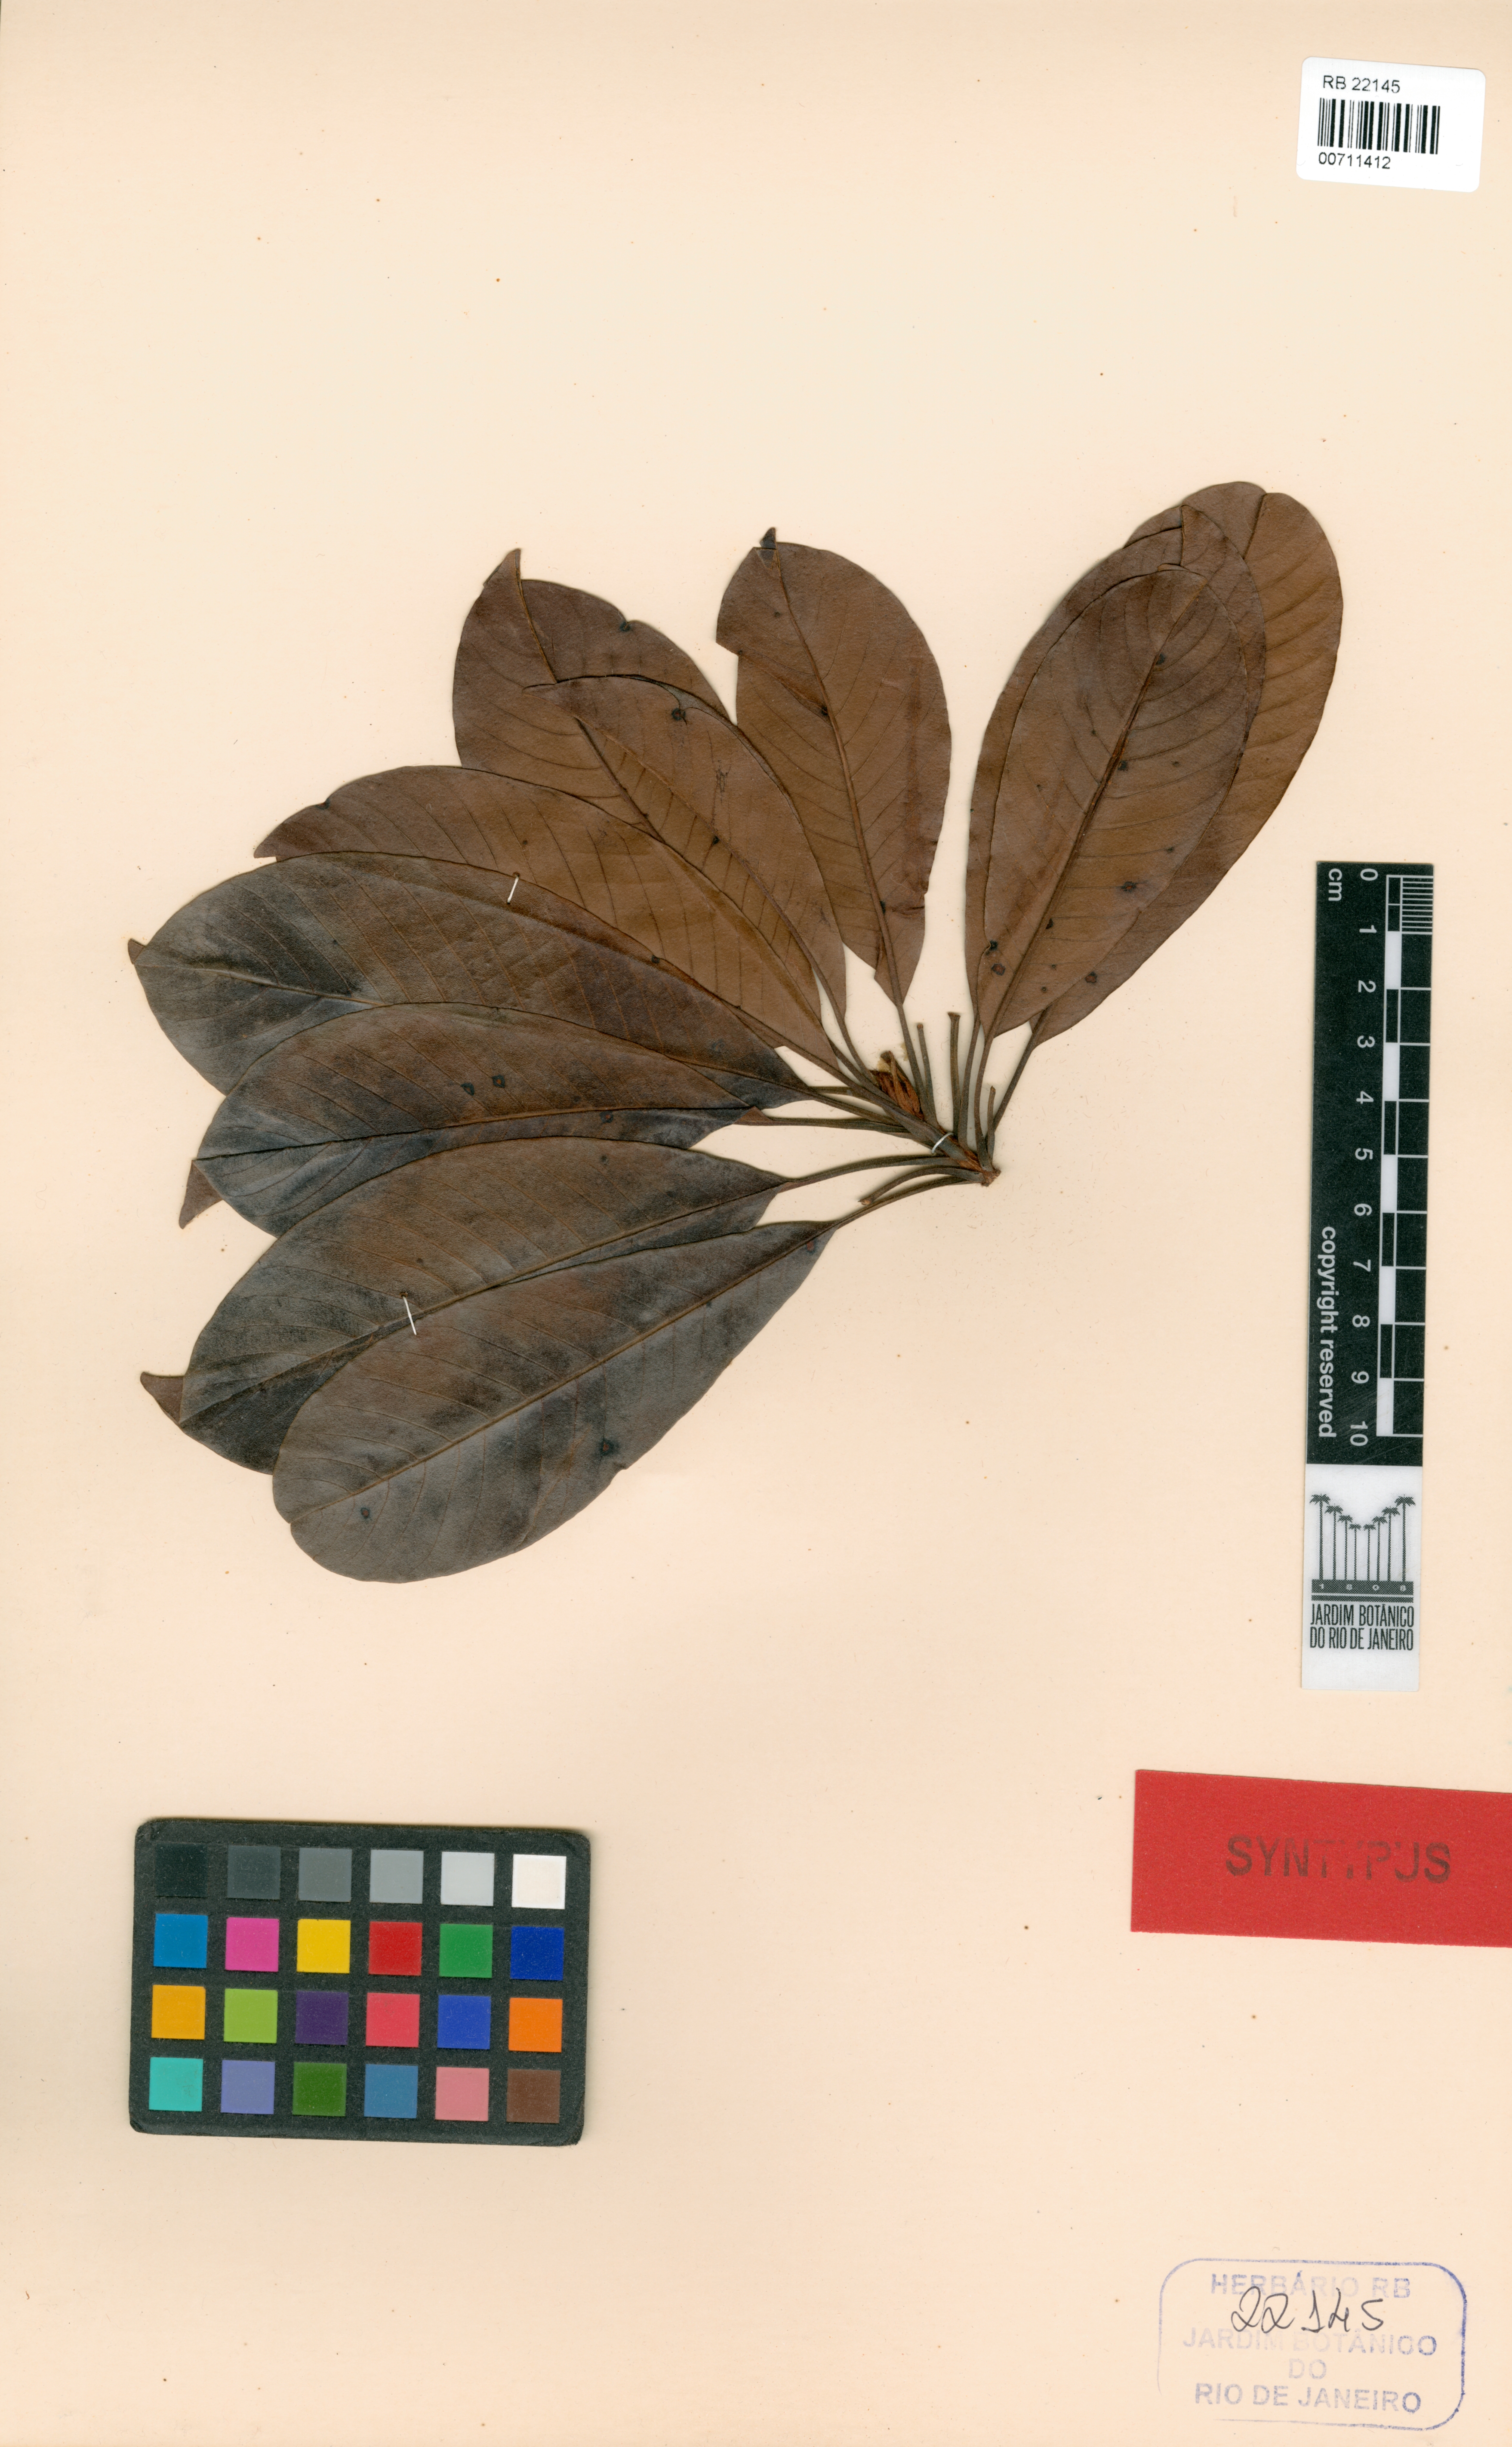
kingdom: Plantae
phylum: Tracheophyta
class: Magnoliopsida
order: Ericales
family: Sapotaceae
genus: Pradosia
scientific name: Pradosia subverticillata
